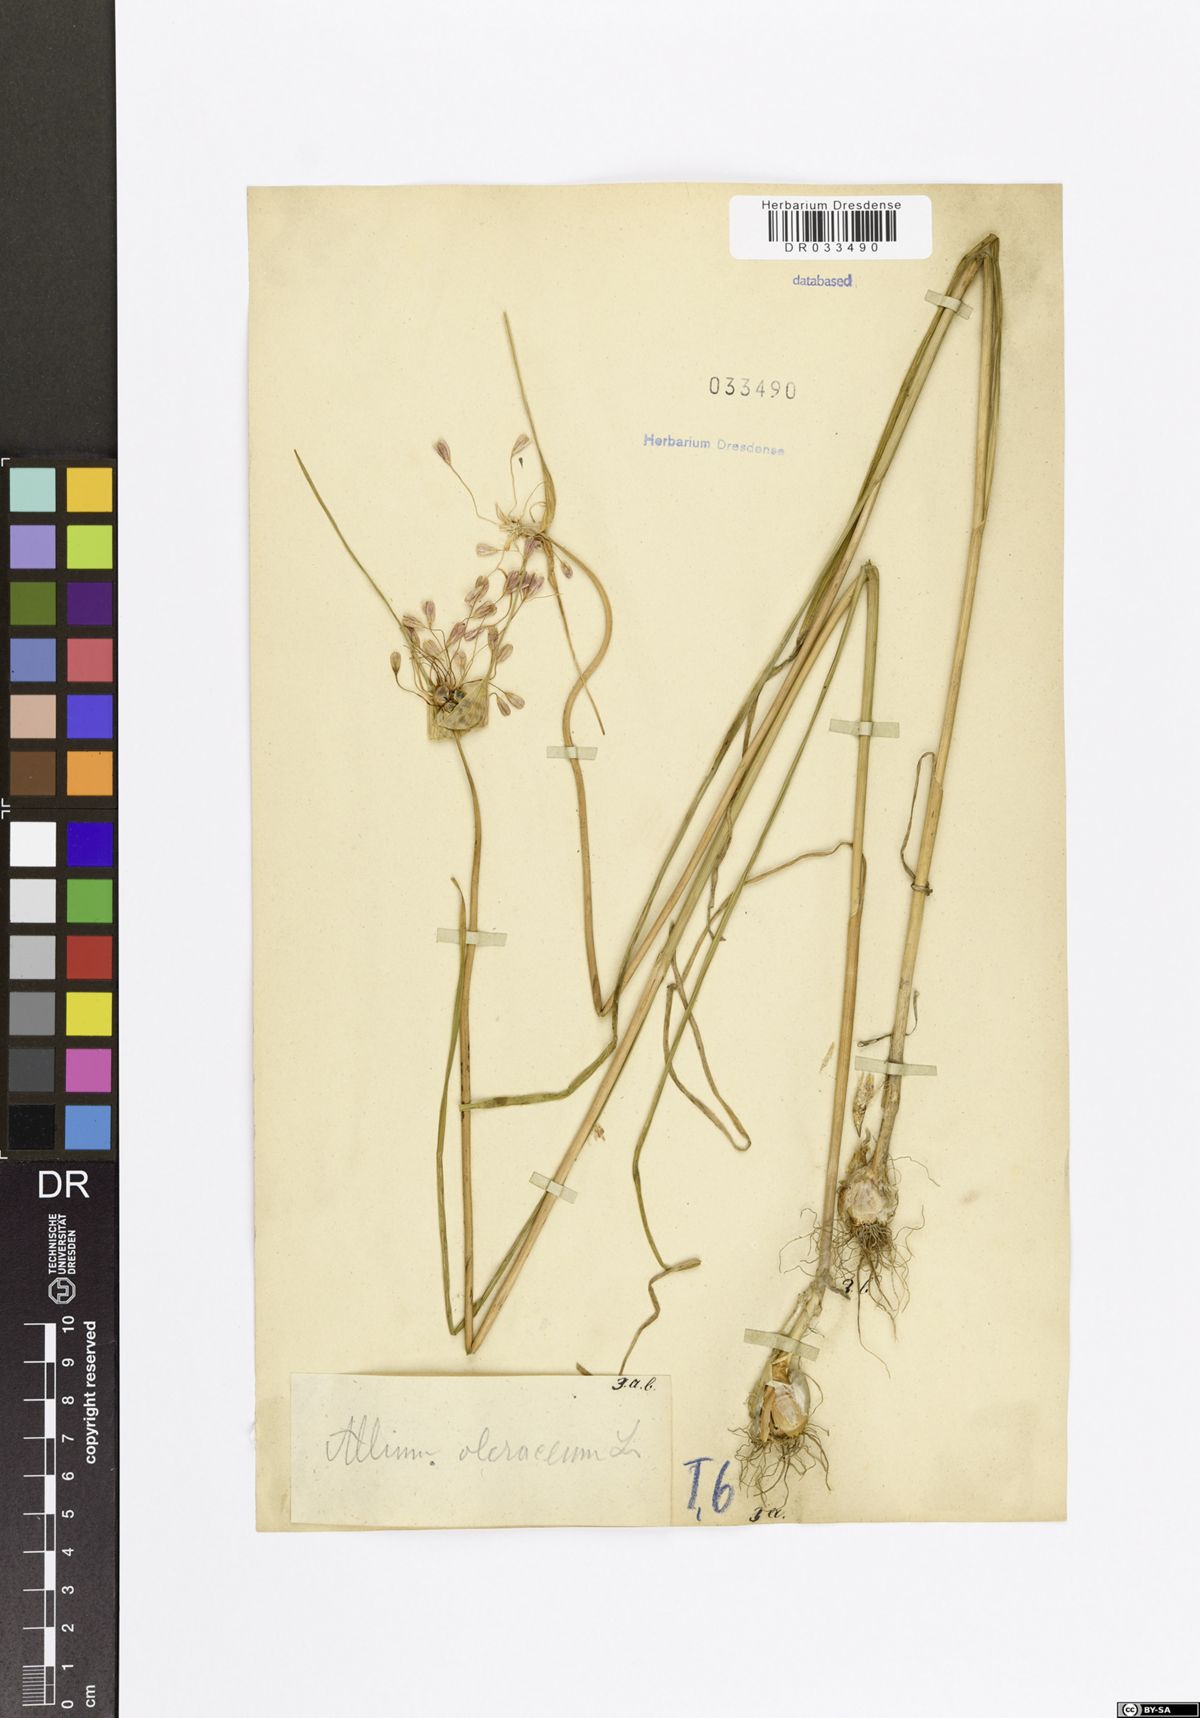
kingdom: Plantae
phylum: Tracheophyta
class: Liliopsida
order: Asparagales
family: Amaryllidaceae
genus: Allium
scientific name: Allium oleraceum
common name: Field garlic
